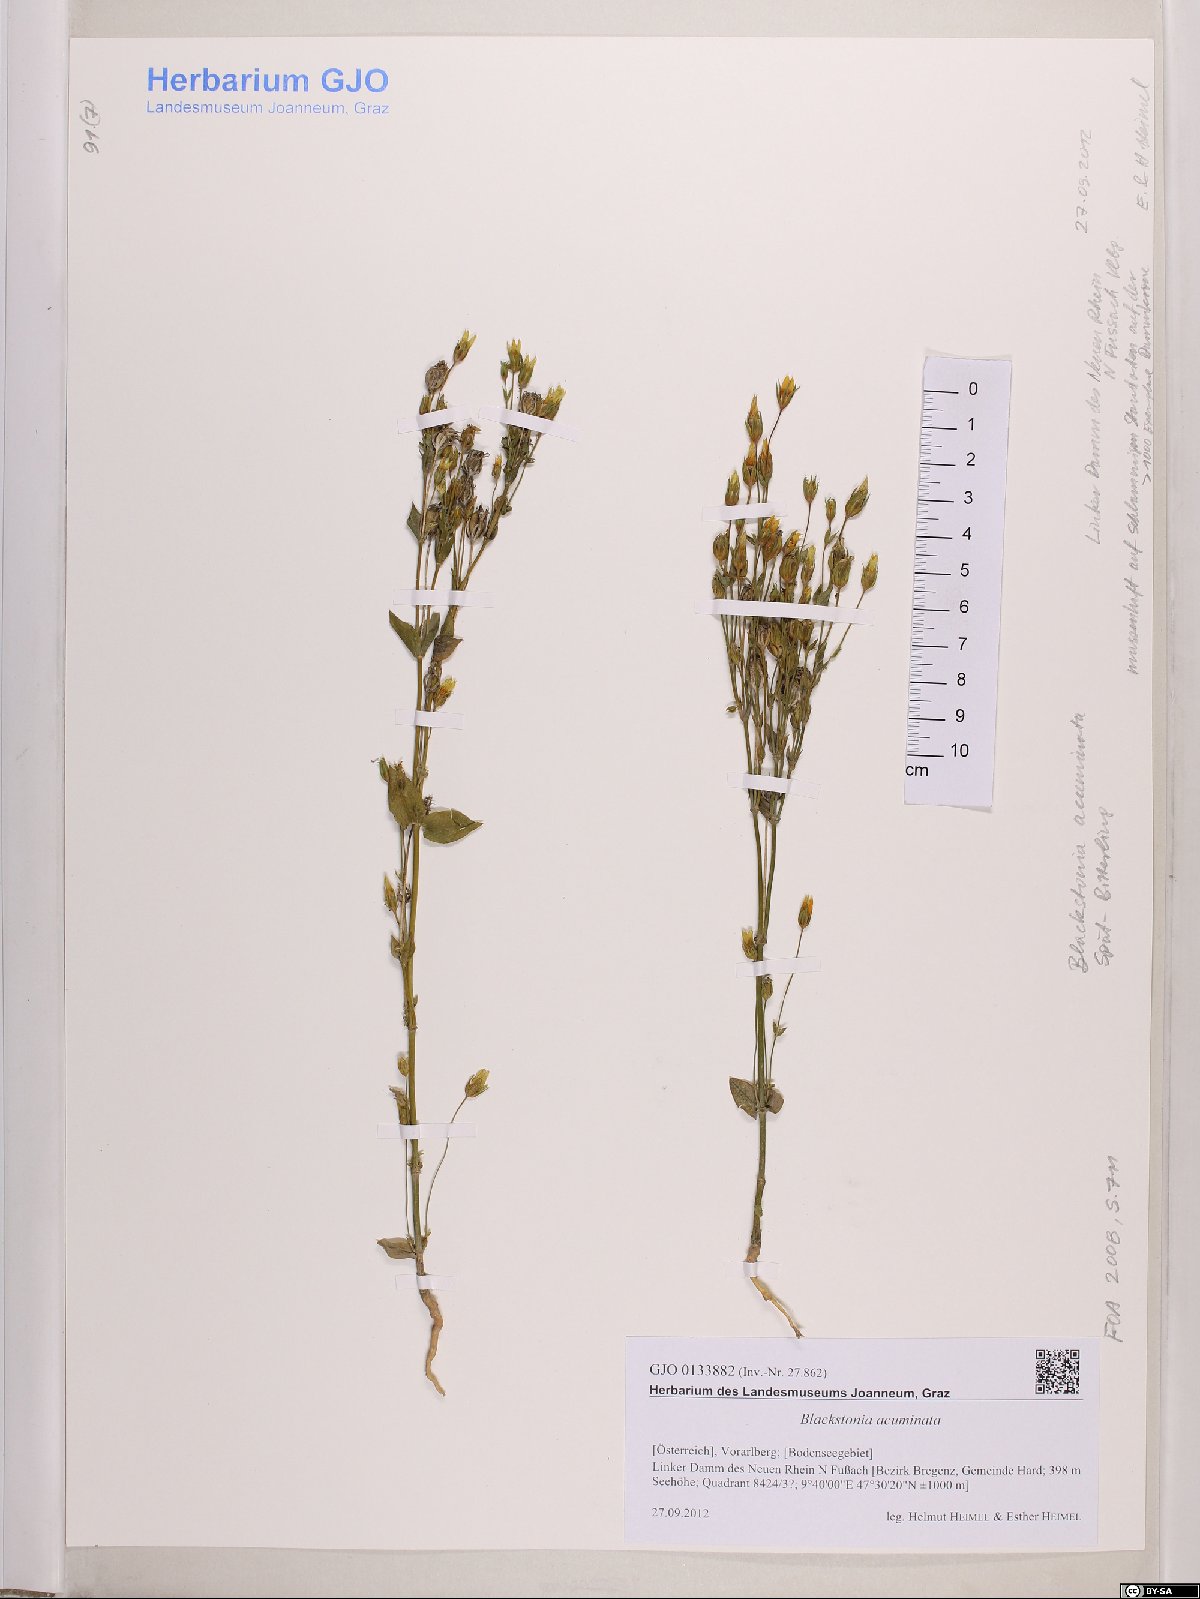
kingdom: Plantae
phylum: Tracheophyta
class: Magnoliopsida
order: Gentianales
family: Gentianaceae
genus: Blackstonia
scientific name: Blackstonia acuminata
